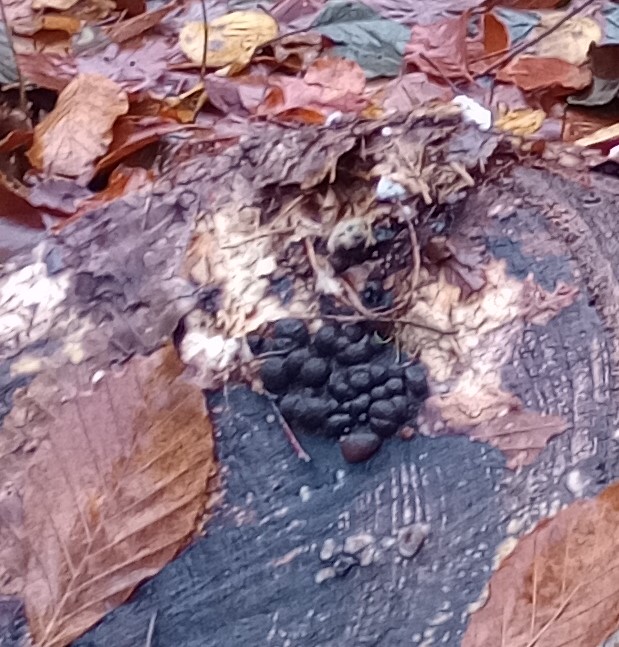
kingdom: Fungi
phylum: Ascomycota
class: Sordariomycetes
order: Xylariales
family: Hypoxylaceae
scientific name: Hypoxylaceae
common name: kulbærfamilien
